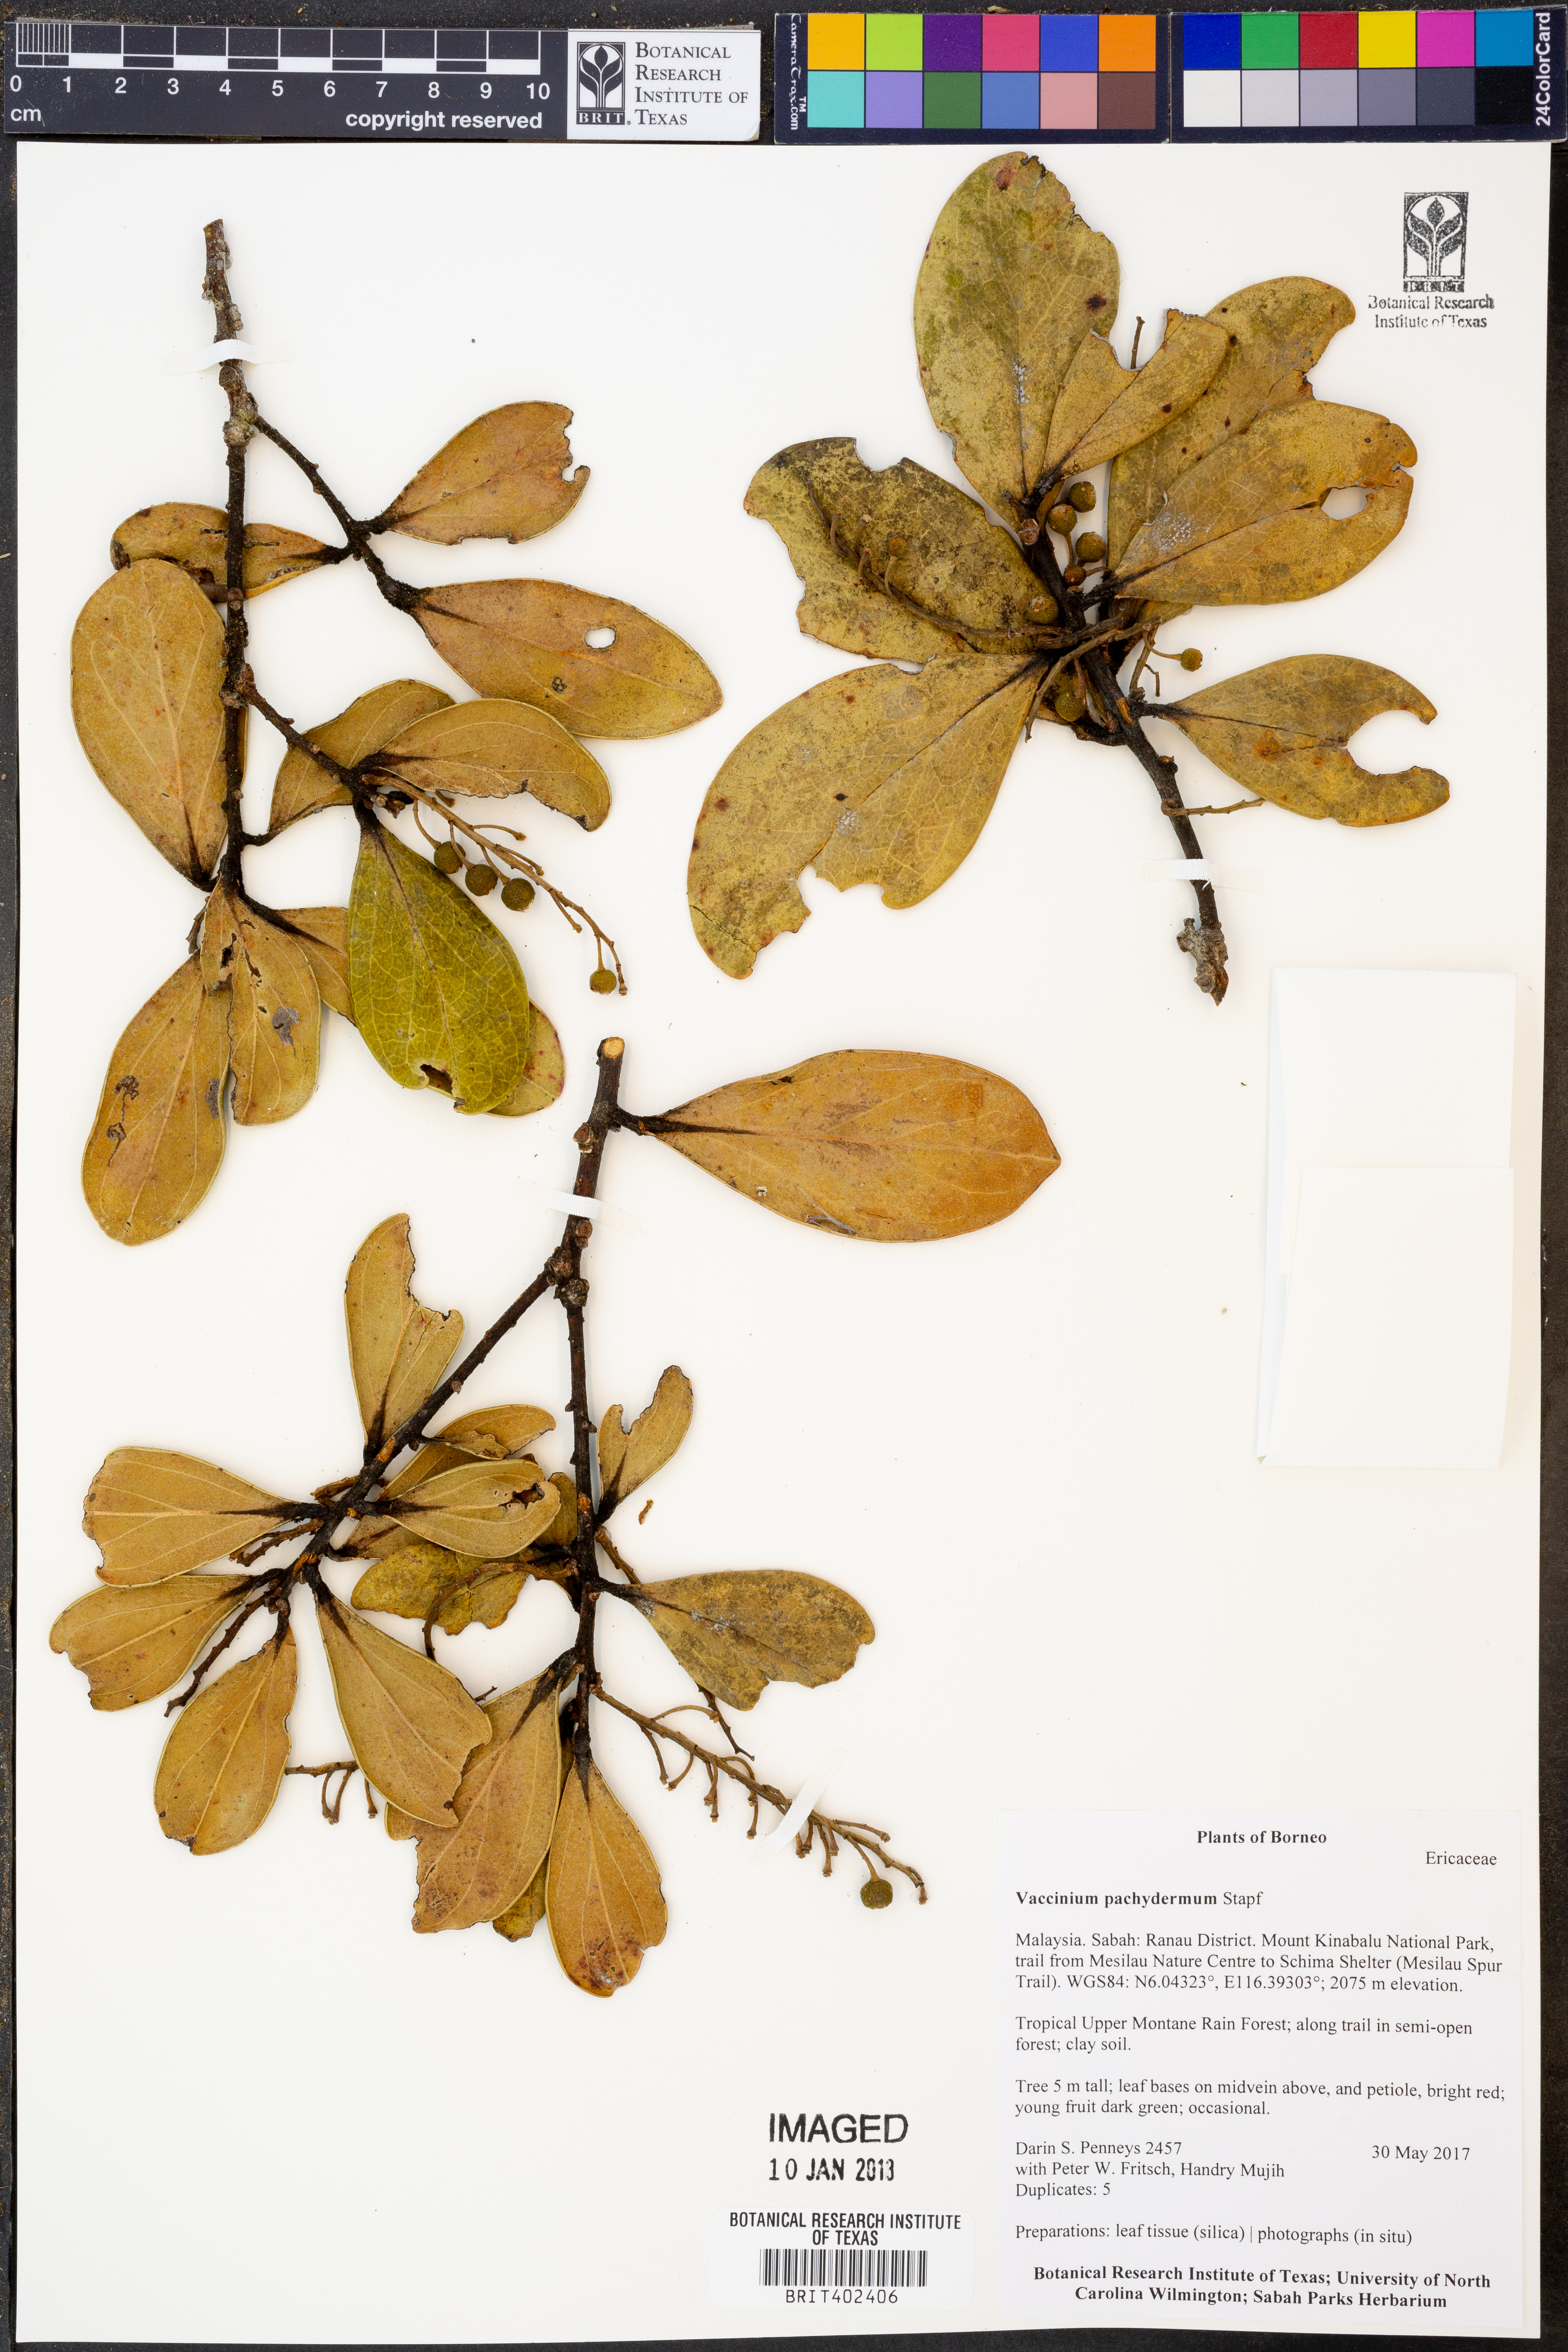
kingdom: Plantae
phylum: Tracheophyta
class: Magnoliopsida
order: Ericales
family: Ericaceae
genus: Sphyrospermum
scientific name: Sphyrospermum buxifolium
